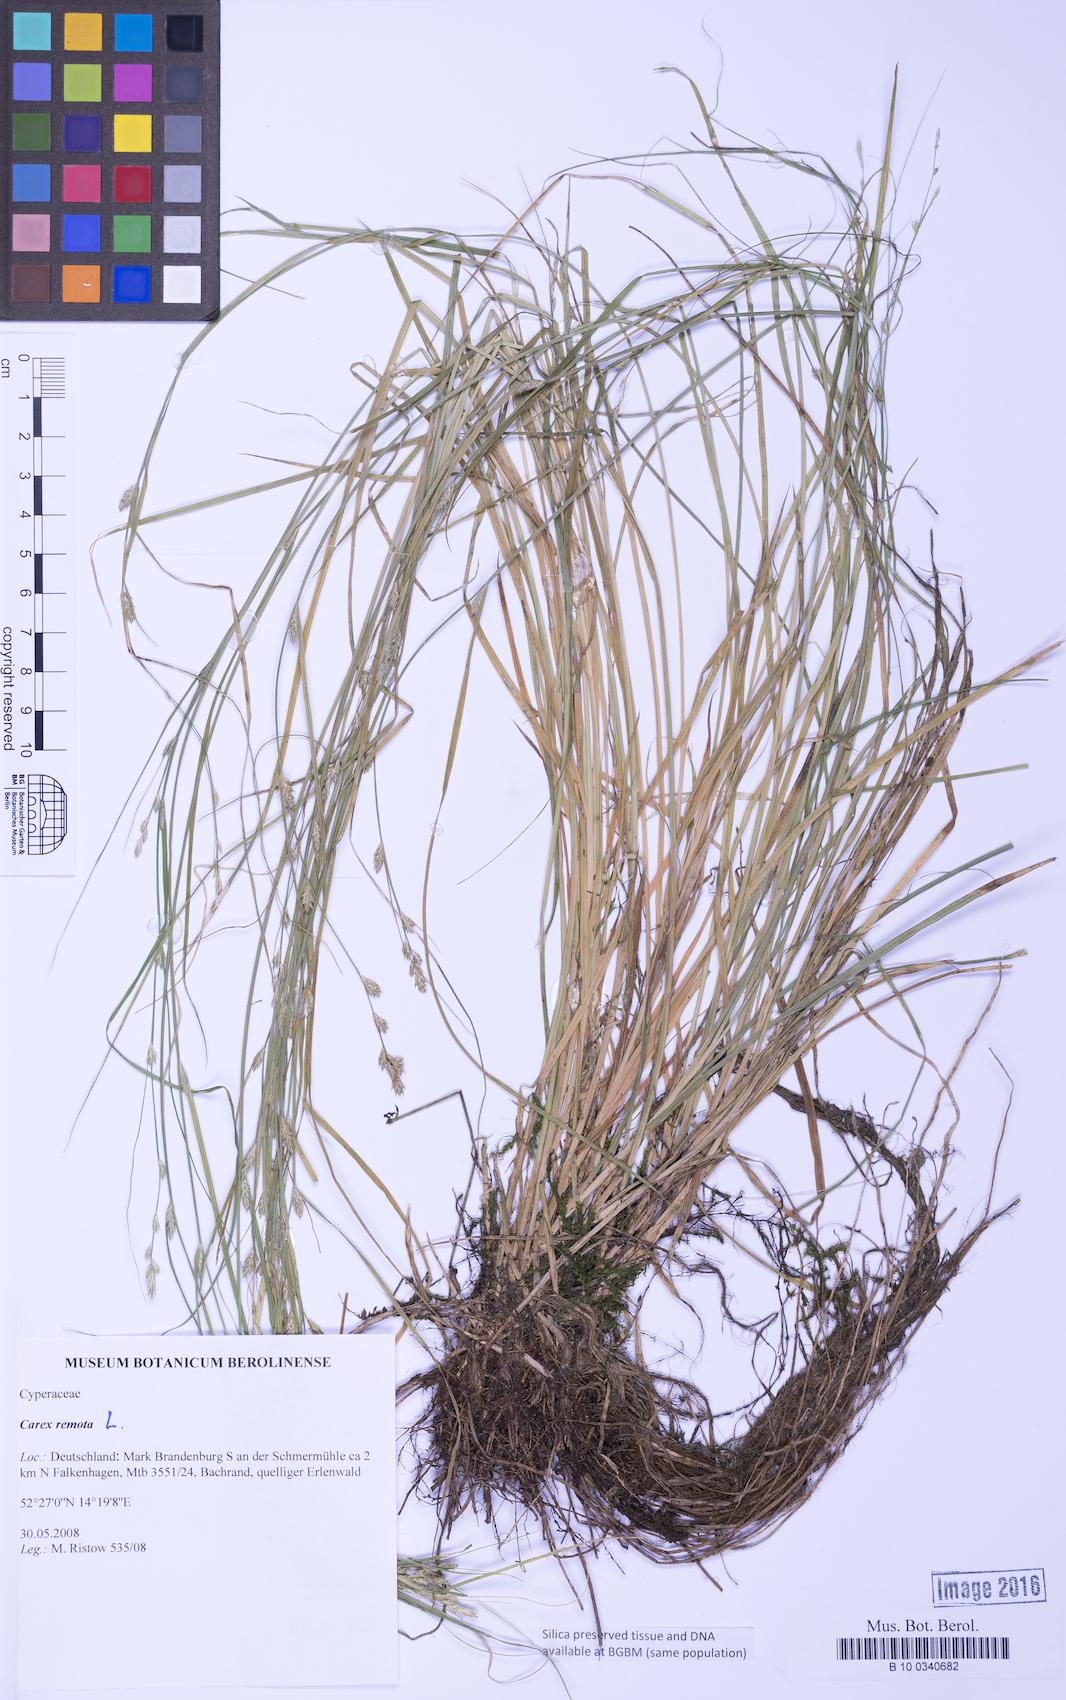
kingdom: Plantae
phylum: Tracheophyta
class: Liliopsida
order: Poales
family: Cyperaceae
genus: Carex
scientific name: Carex remota
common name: Remote sedge
